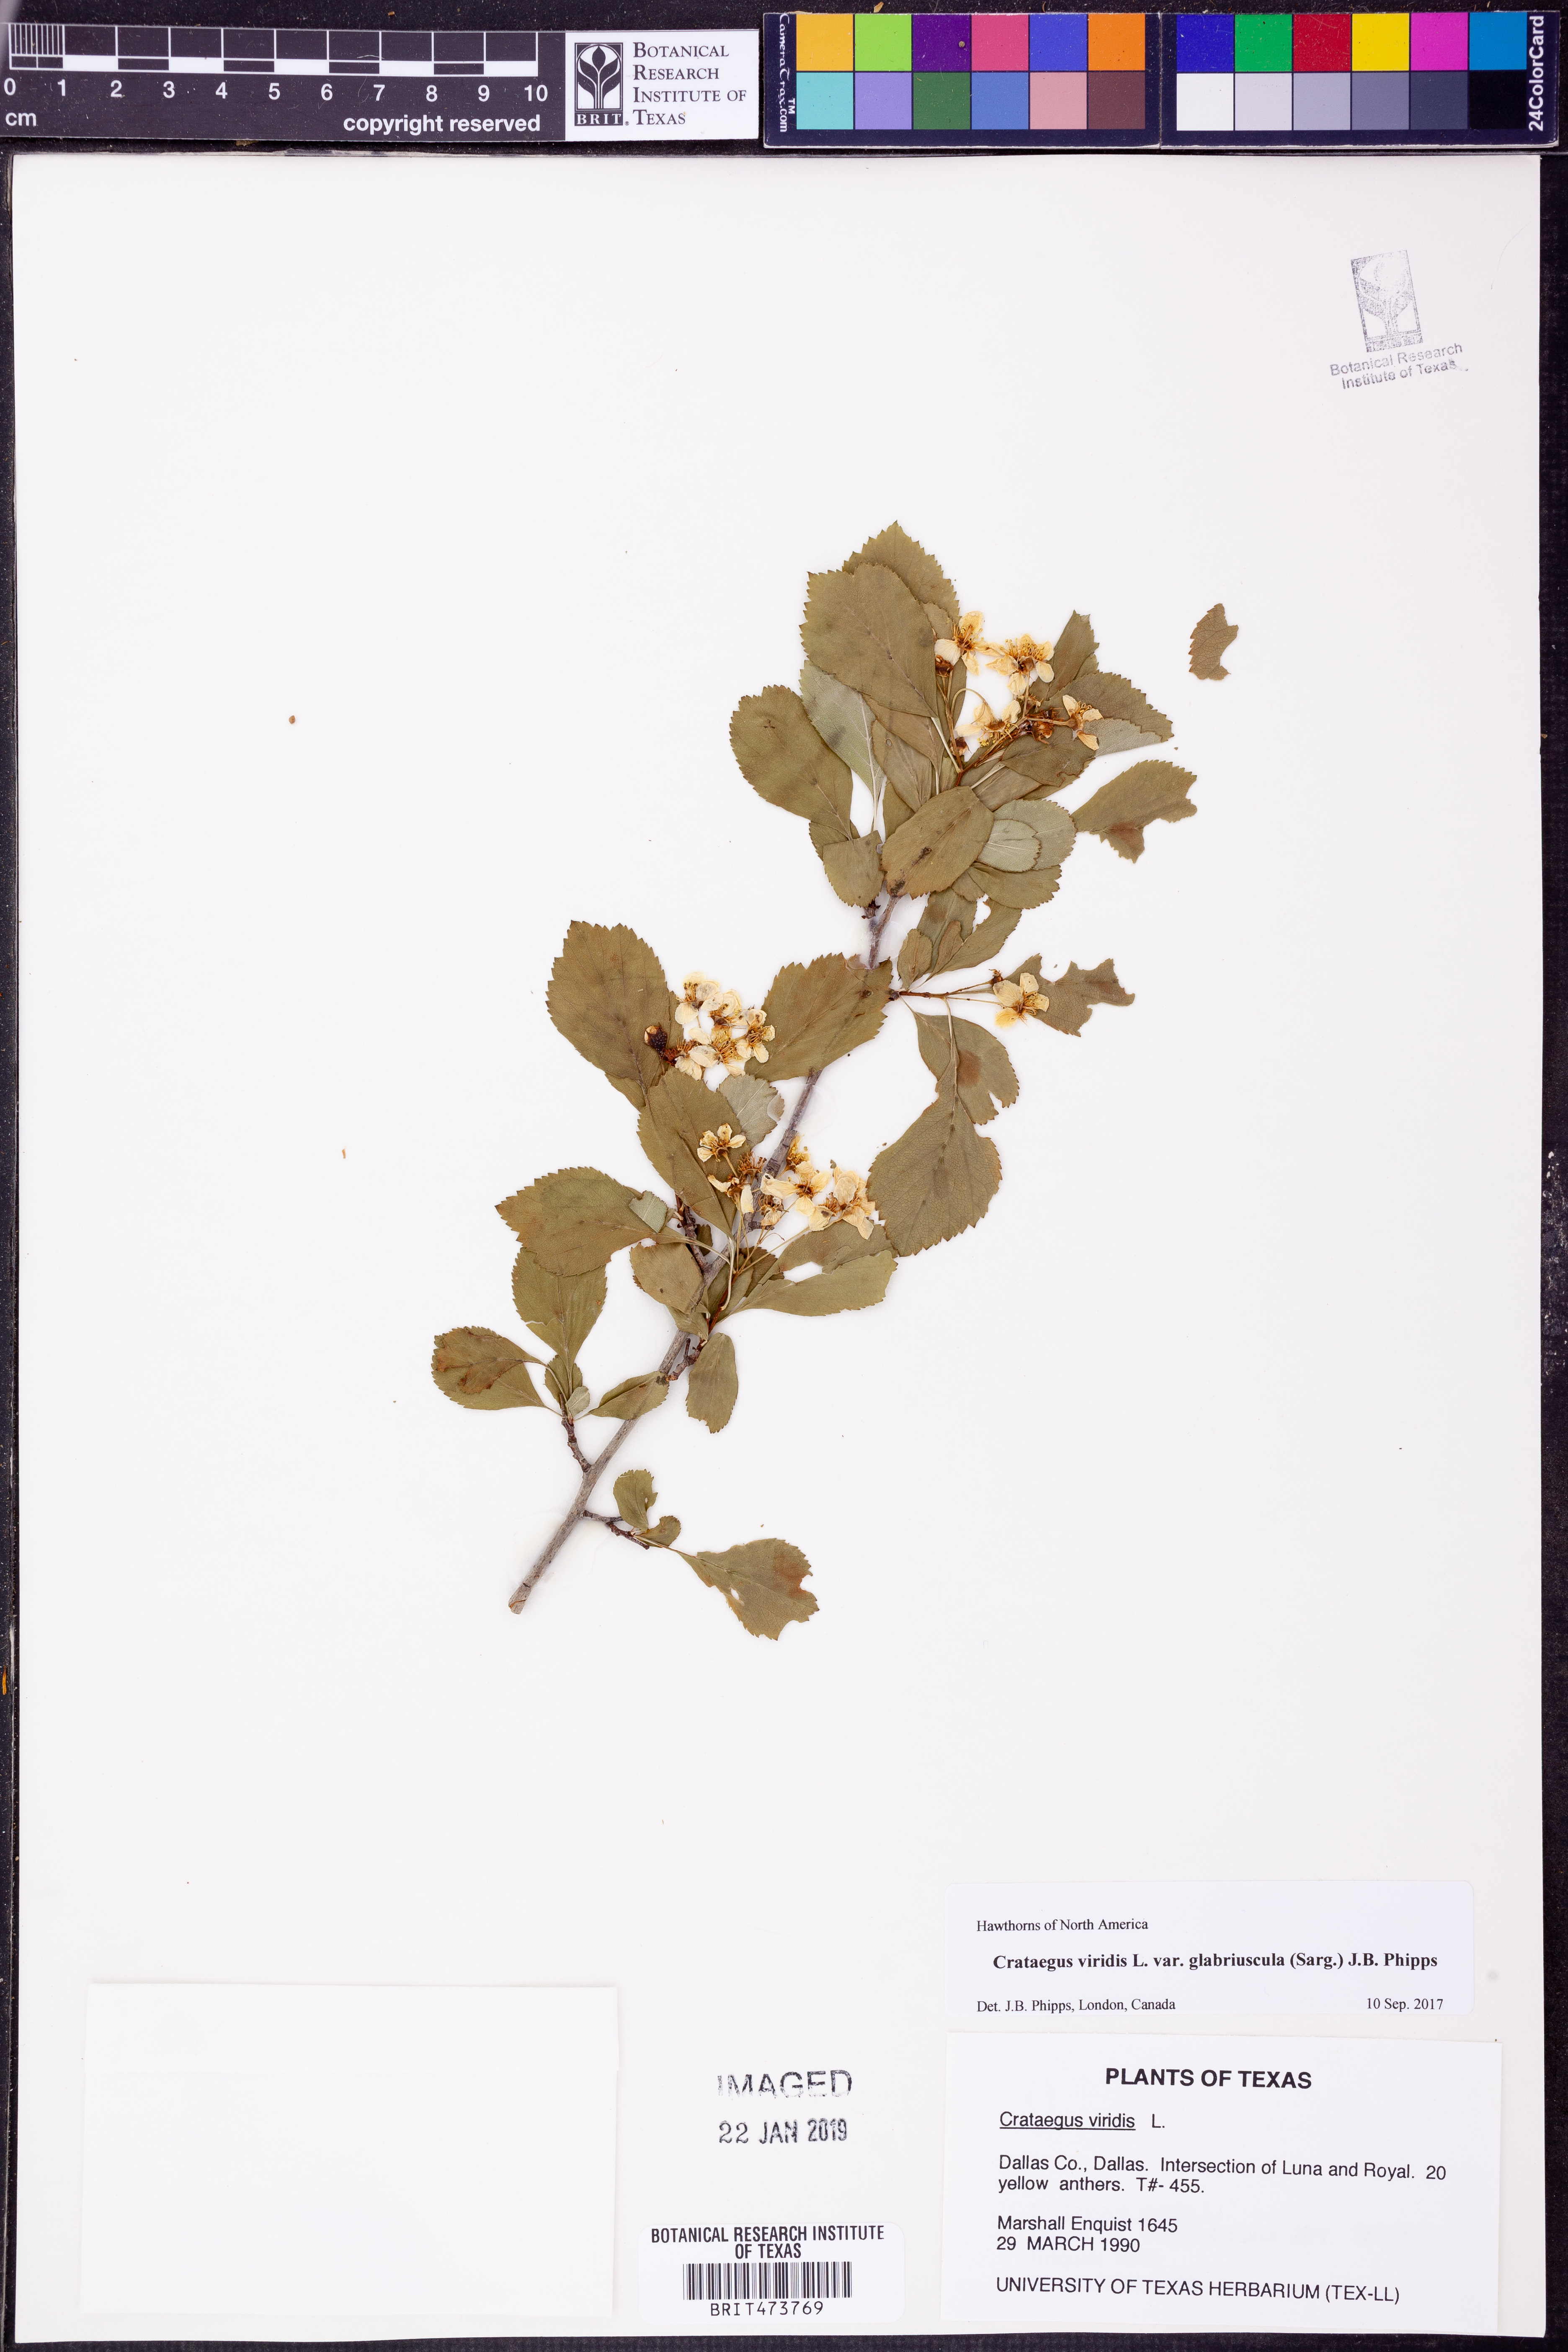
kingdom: Plantae
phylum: Tracheophyta
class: Magnoliopsida
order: Rosales
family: Rosaceae
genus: Crataegus
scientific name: Crataegus viridis
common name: Southernthorn
